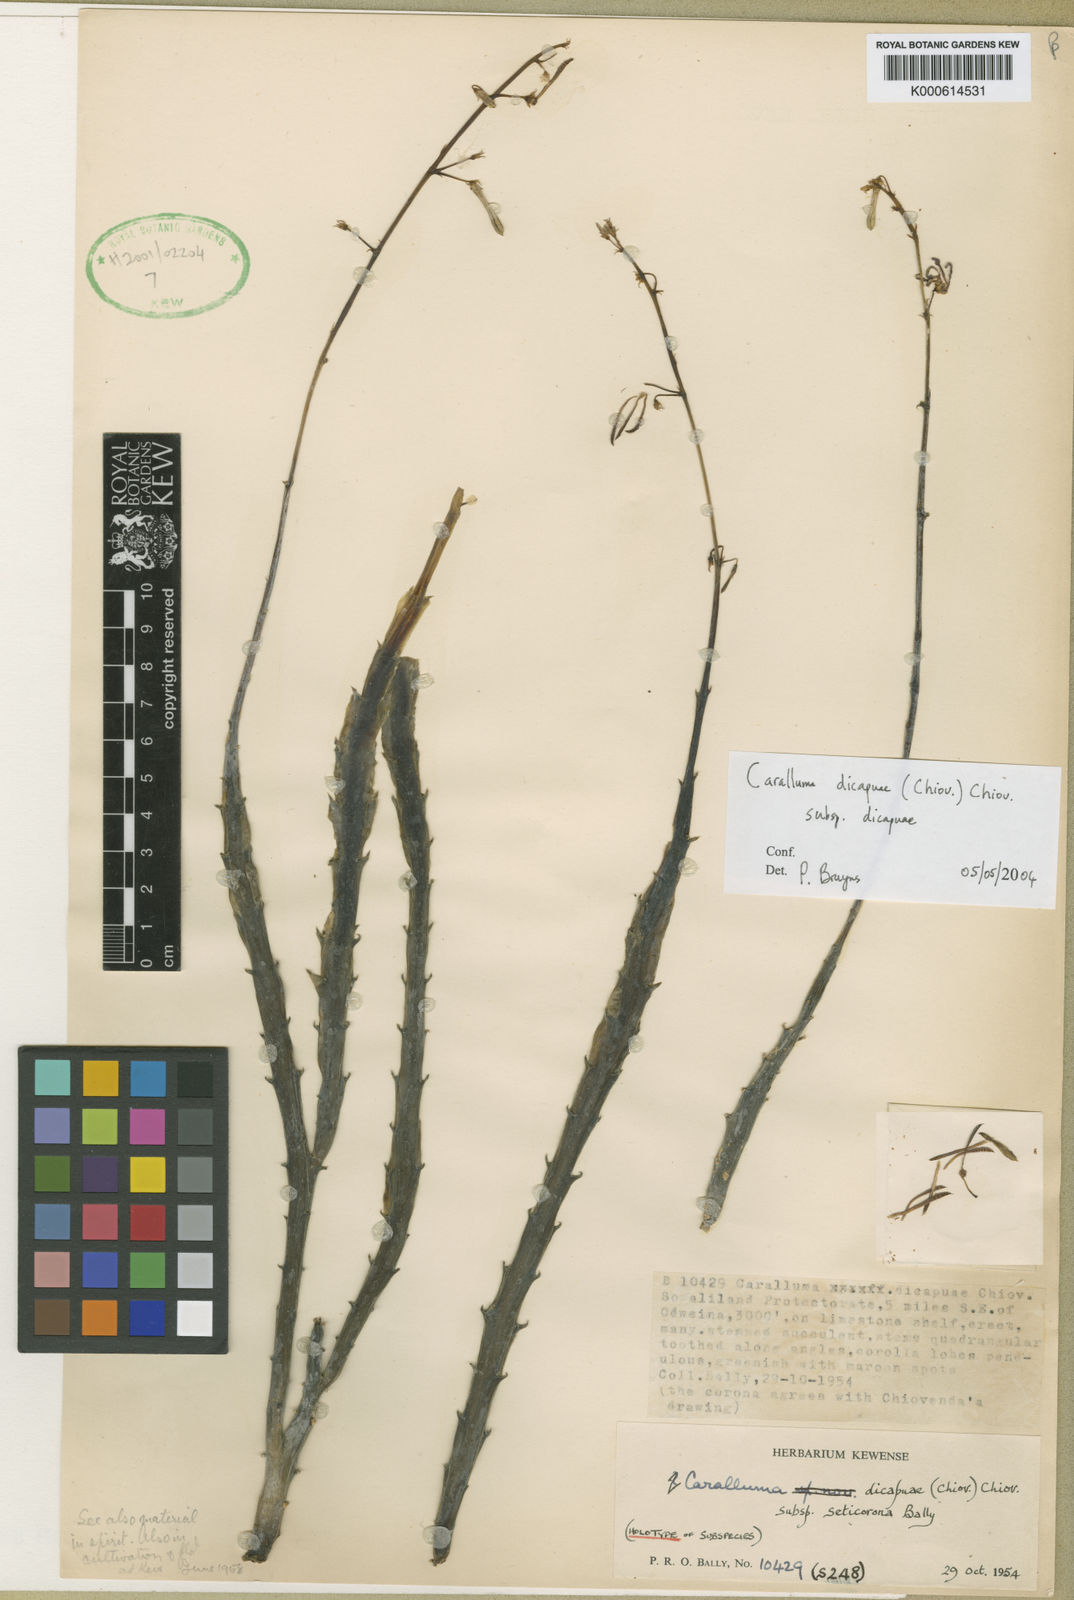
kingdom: Plantae
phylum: Tracheophyta
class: Magnoliopsida
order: Gentianales
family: Apocynaceae
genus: Ceropegia
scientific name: Ceropegia dicapuae
